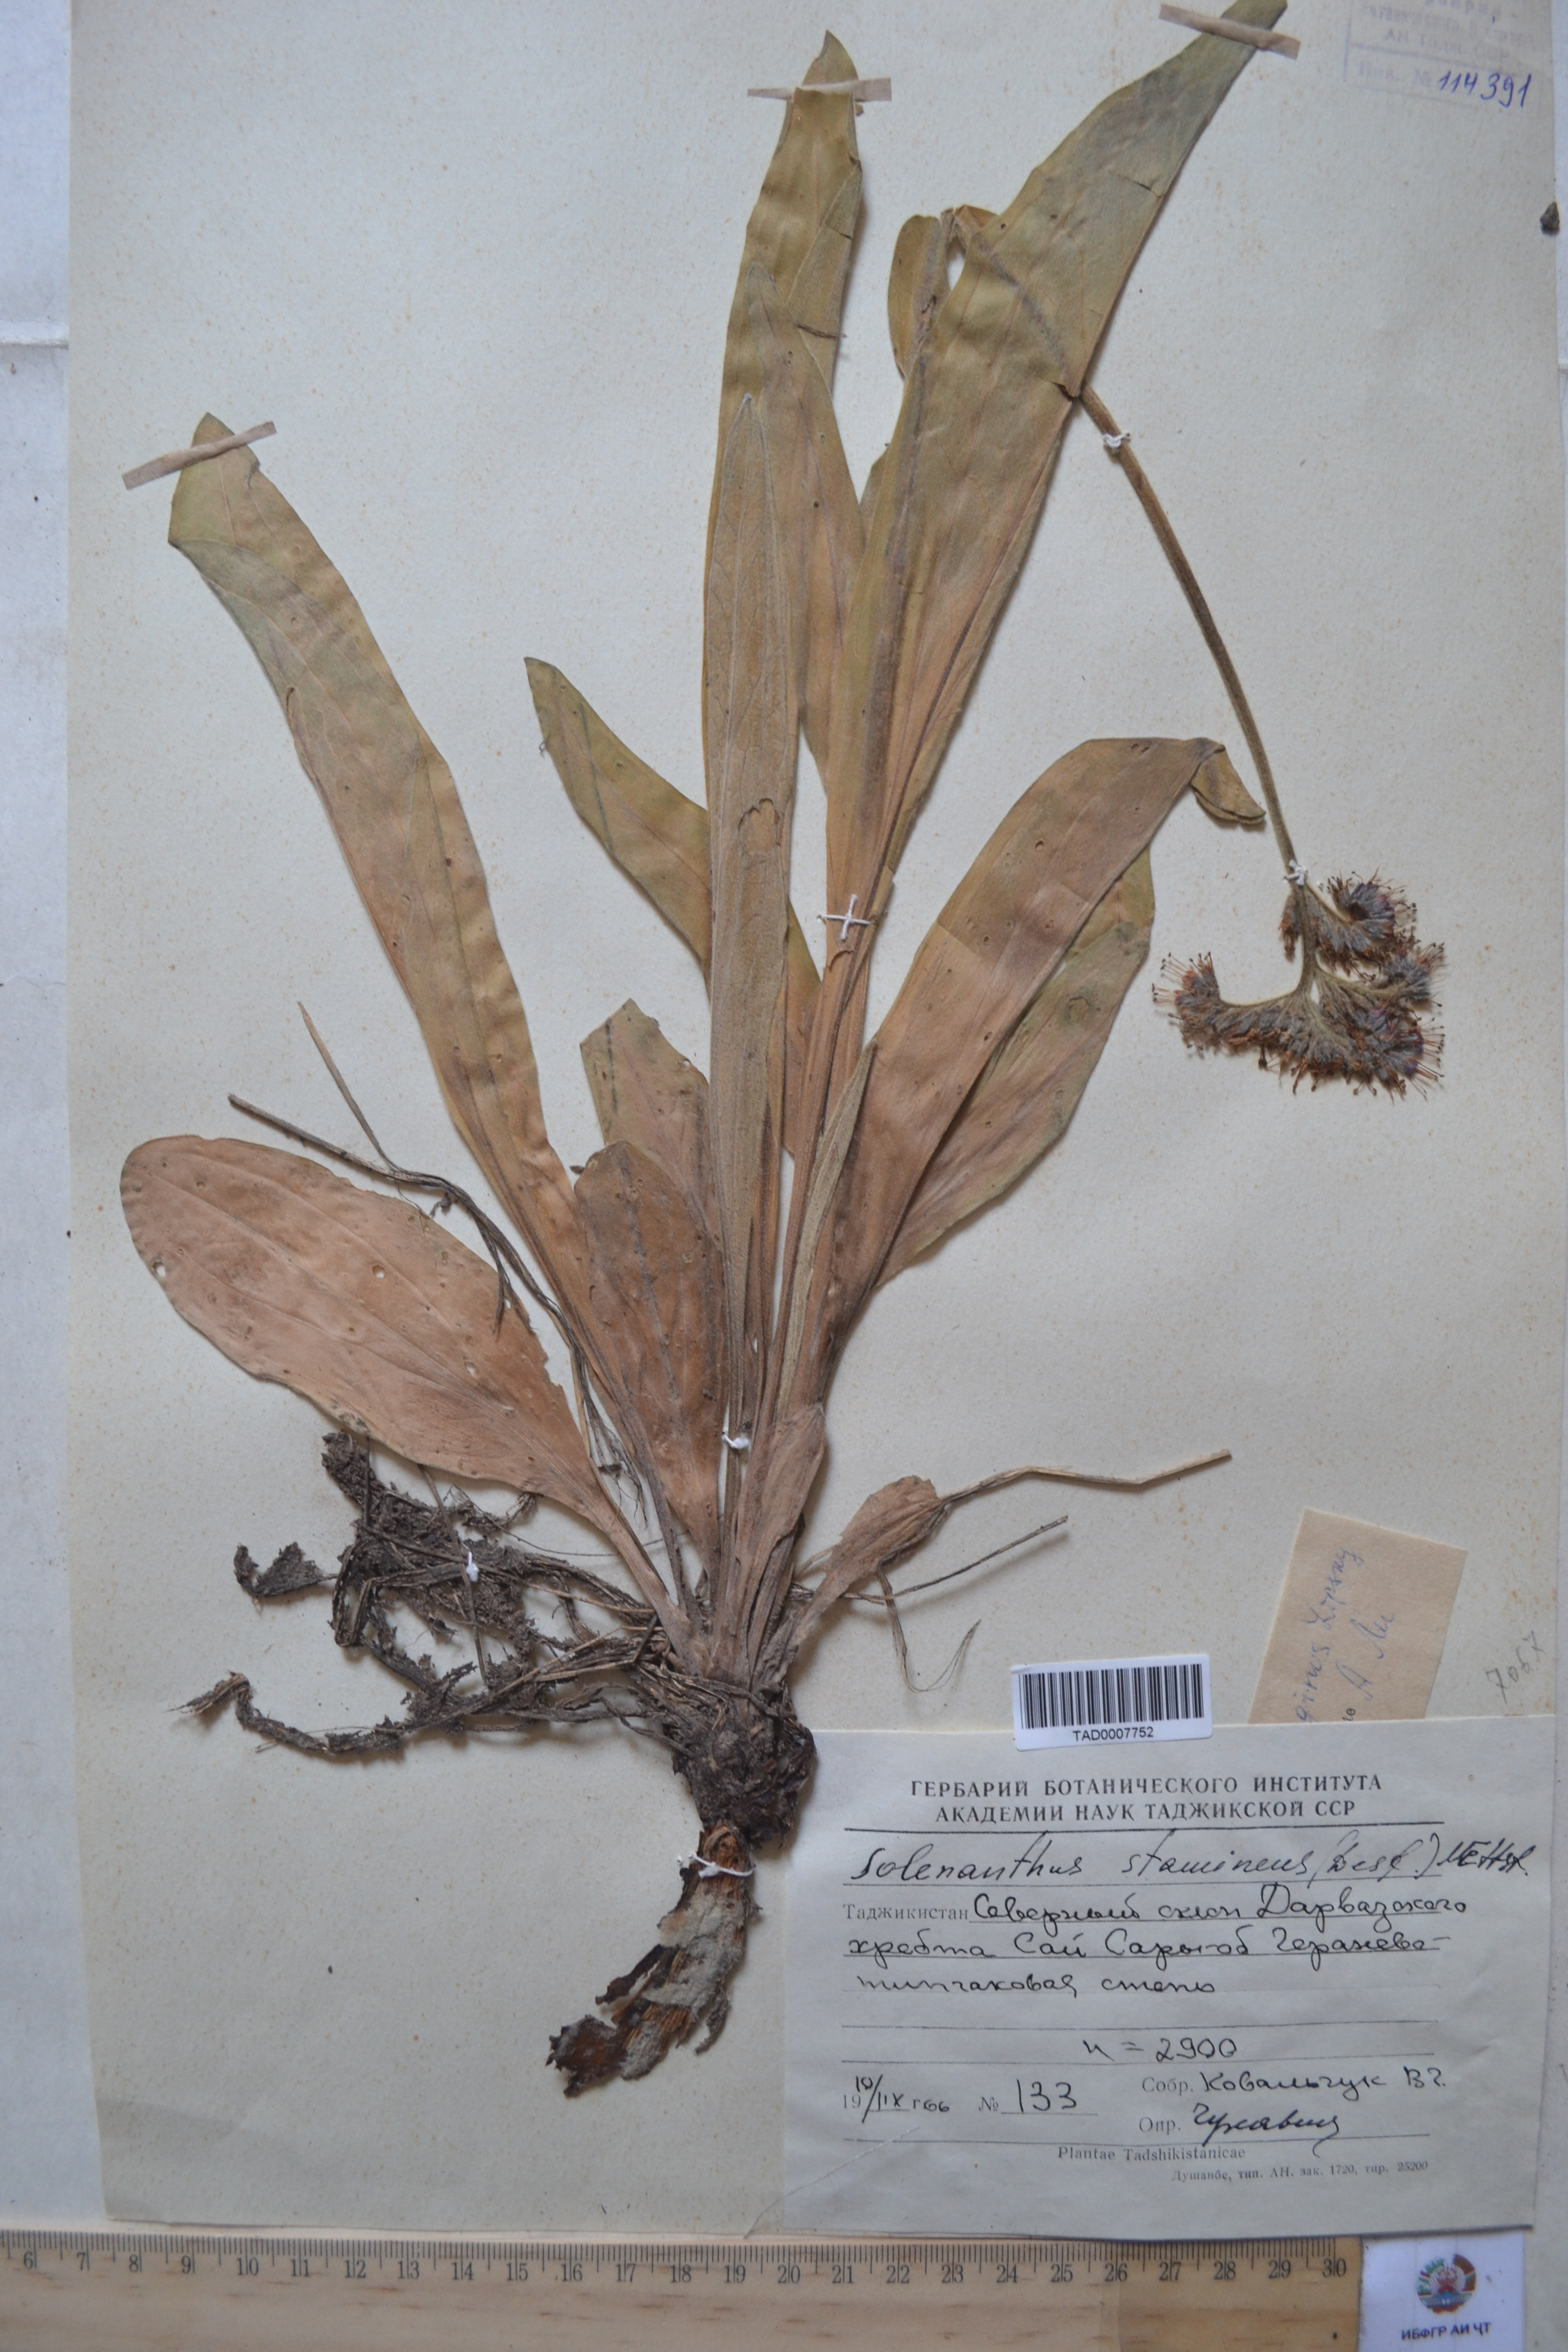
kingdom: Plantae
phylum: Tracheophyta
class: Magnoliopsida
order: Boraginales
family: Boraginaceae
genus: Solenanthus
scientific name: Solenanthus stamineus
